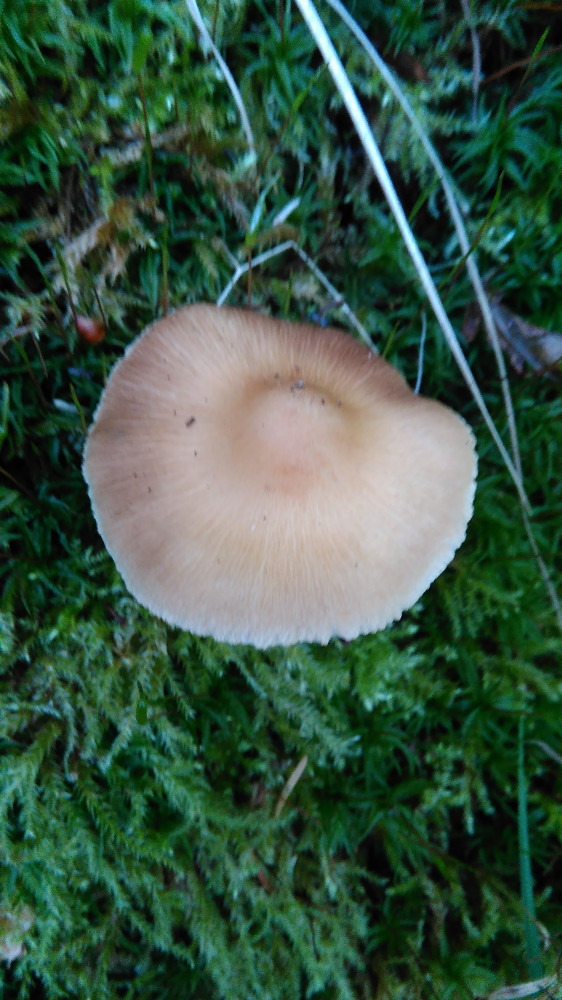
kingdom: Fungi
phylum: Basidiomycota
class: Agaricomycetes
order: Agaricales
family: Inocybaceae
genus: Inocybe
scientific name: Inocybe
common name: trævlhat
